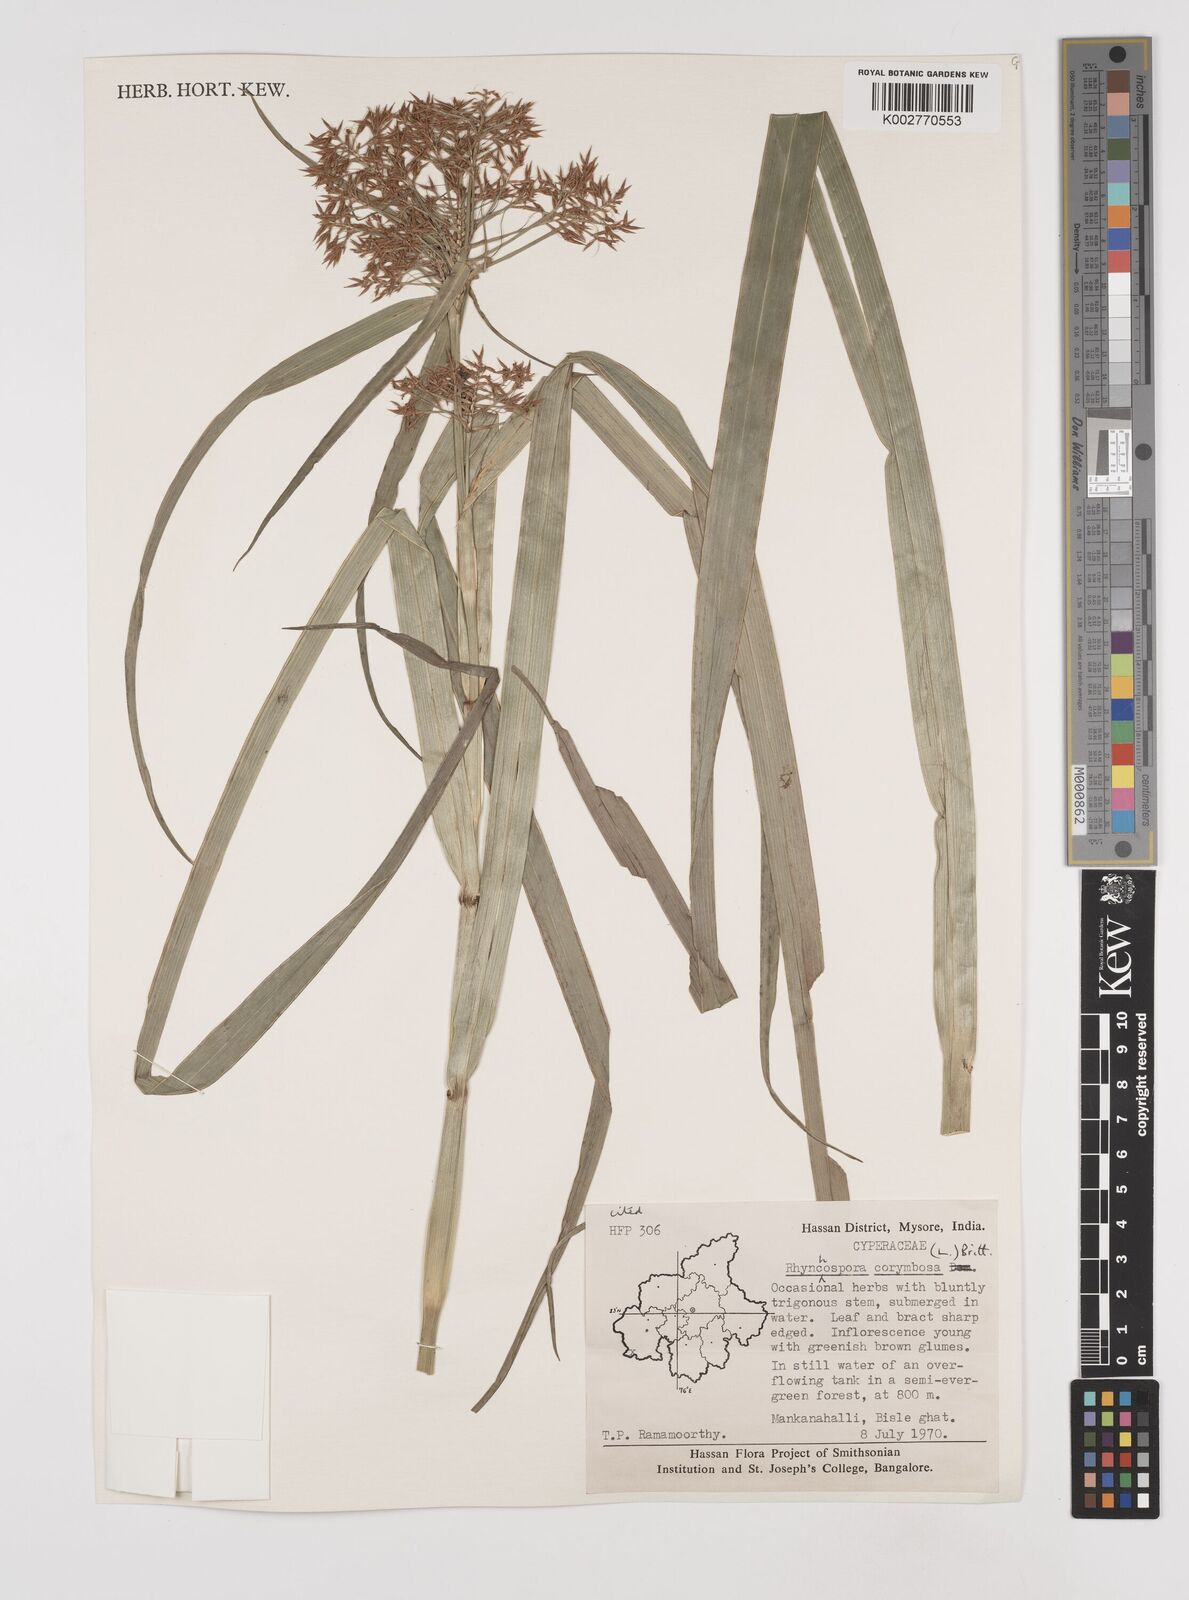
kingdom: Plantae
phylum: Tracheophyta
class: Liliopsida
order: Poales
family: Cyperaceae
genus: Rhynchospora
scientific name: Rhynchospora corymbosa
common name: Golden beak sedge
